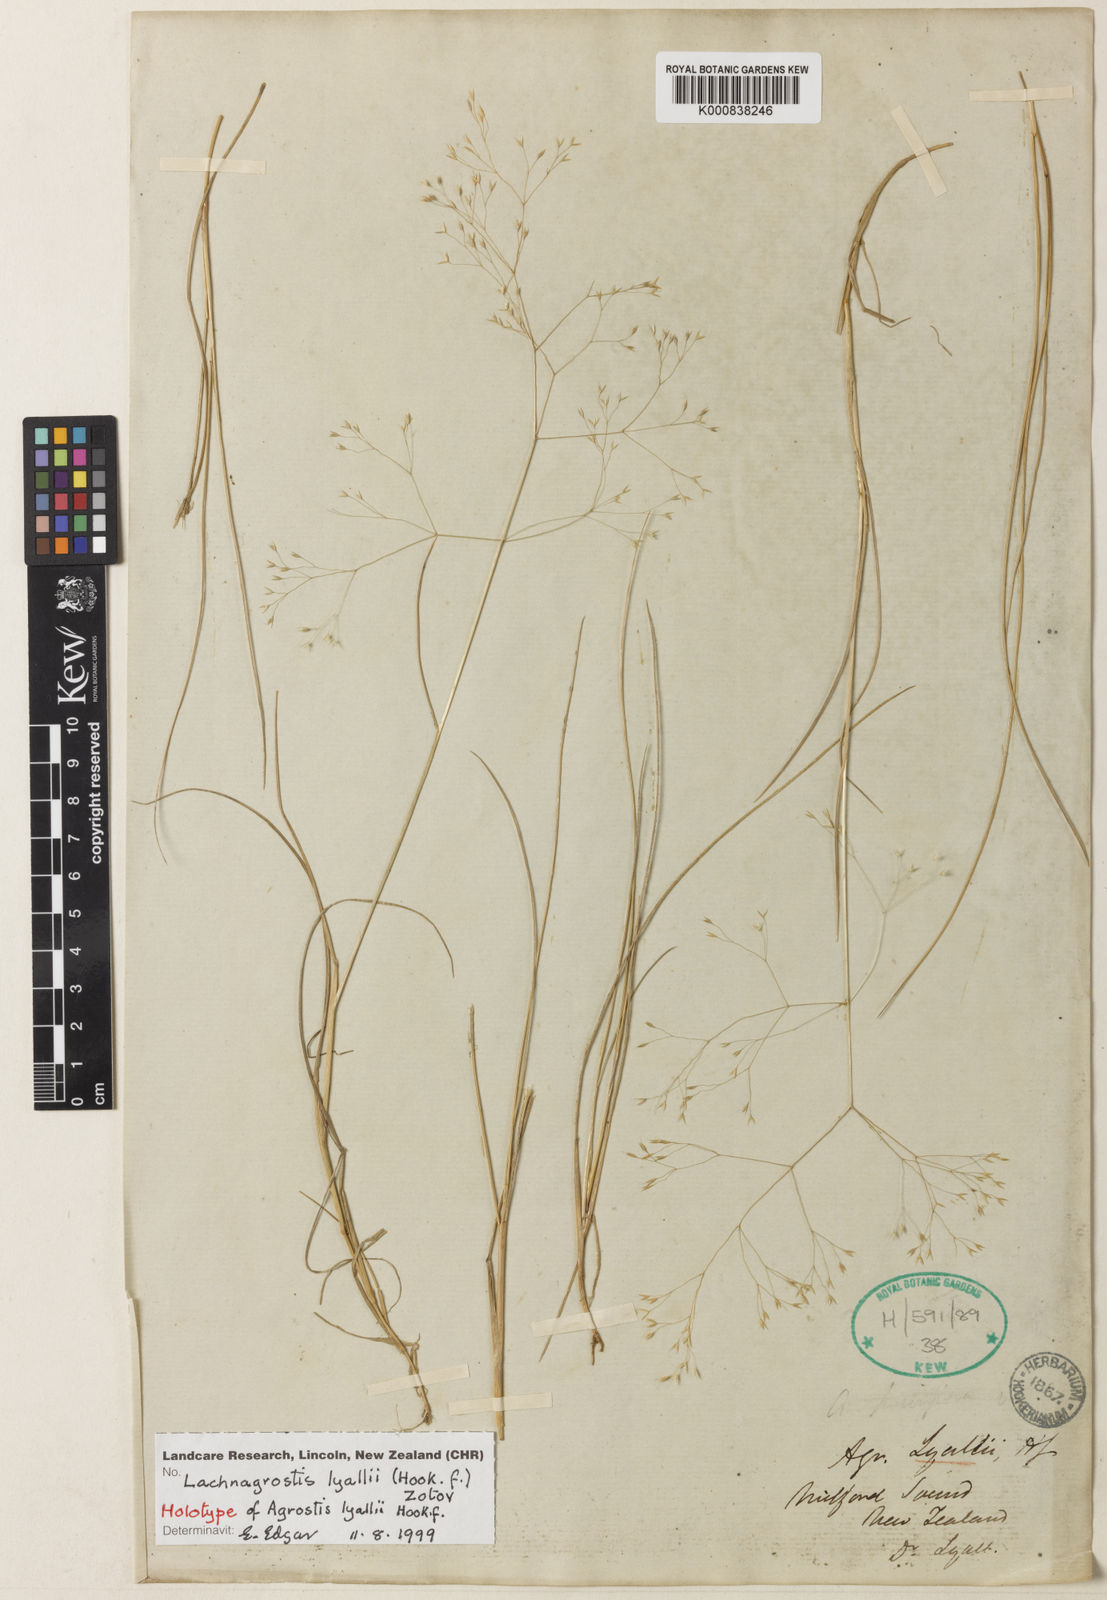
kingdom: Plantae
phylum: Tracheophyta
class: Liliopsida
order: Poales
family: Poaceae
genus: Lachnagrostis
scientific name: Lachnagrostis lyallii
